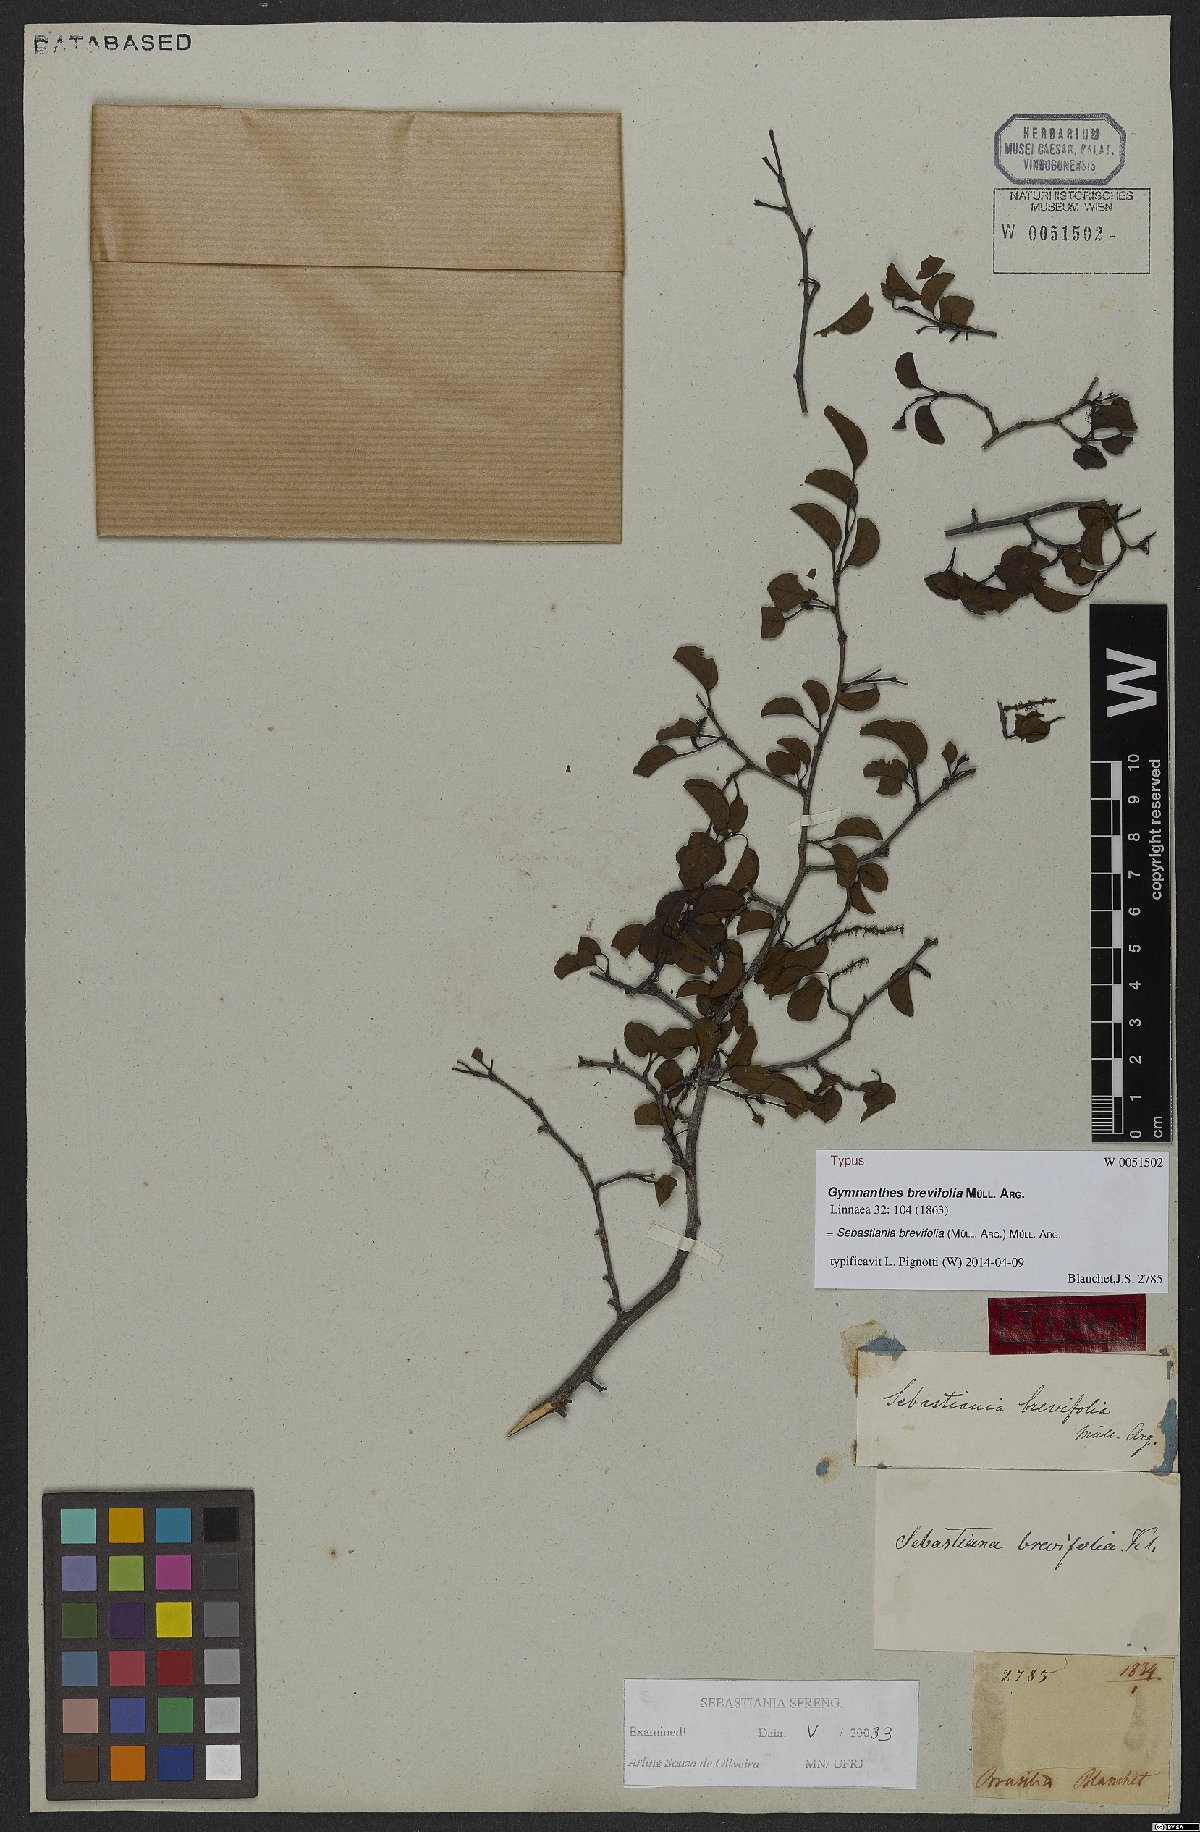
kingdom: Plantae
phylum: Tracheophyta
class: Magnoliopsida
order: Malpighiales
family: Euphorbiaceae
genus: Sebastiania
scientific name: Sebastiania brevifolia
